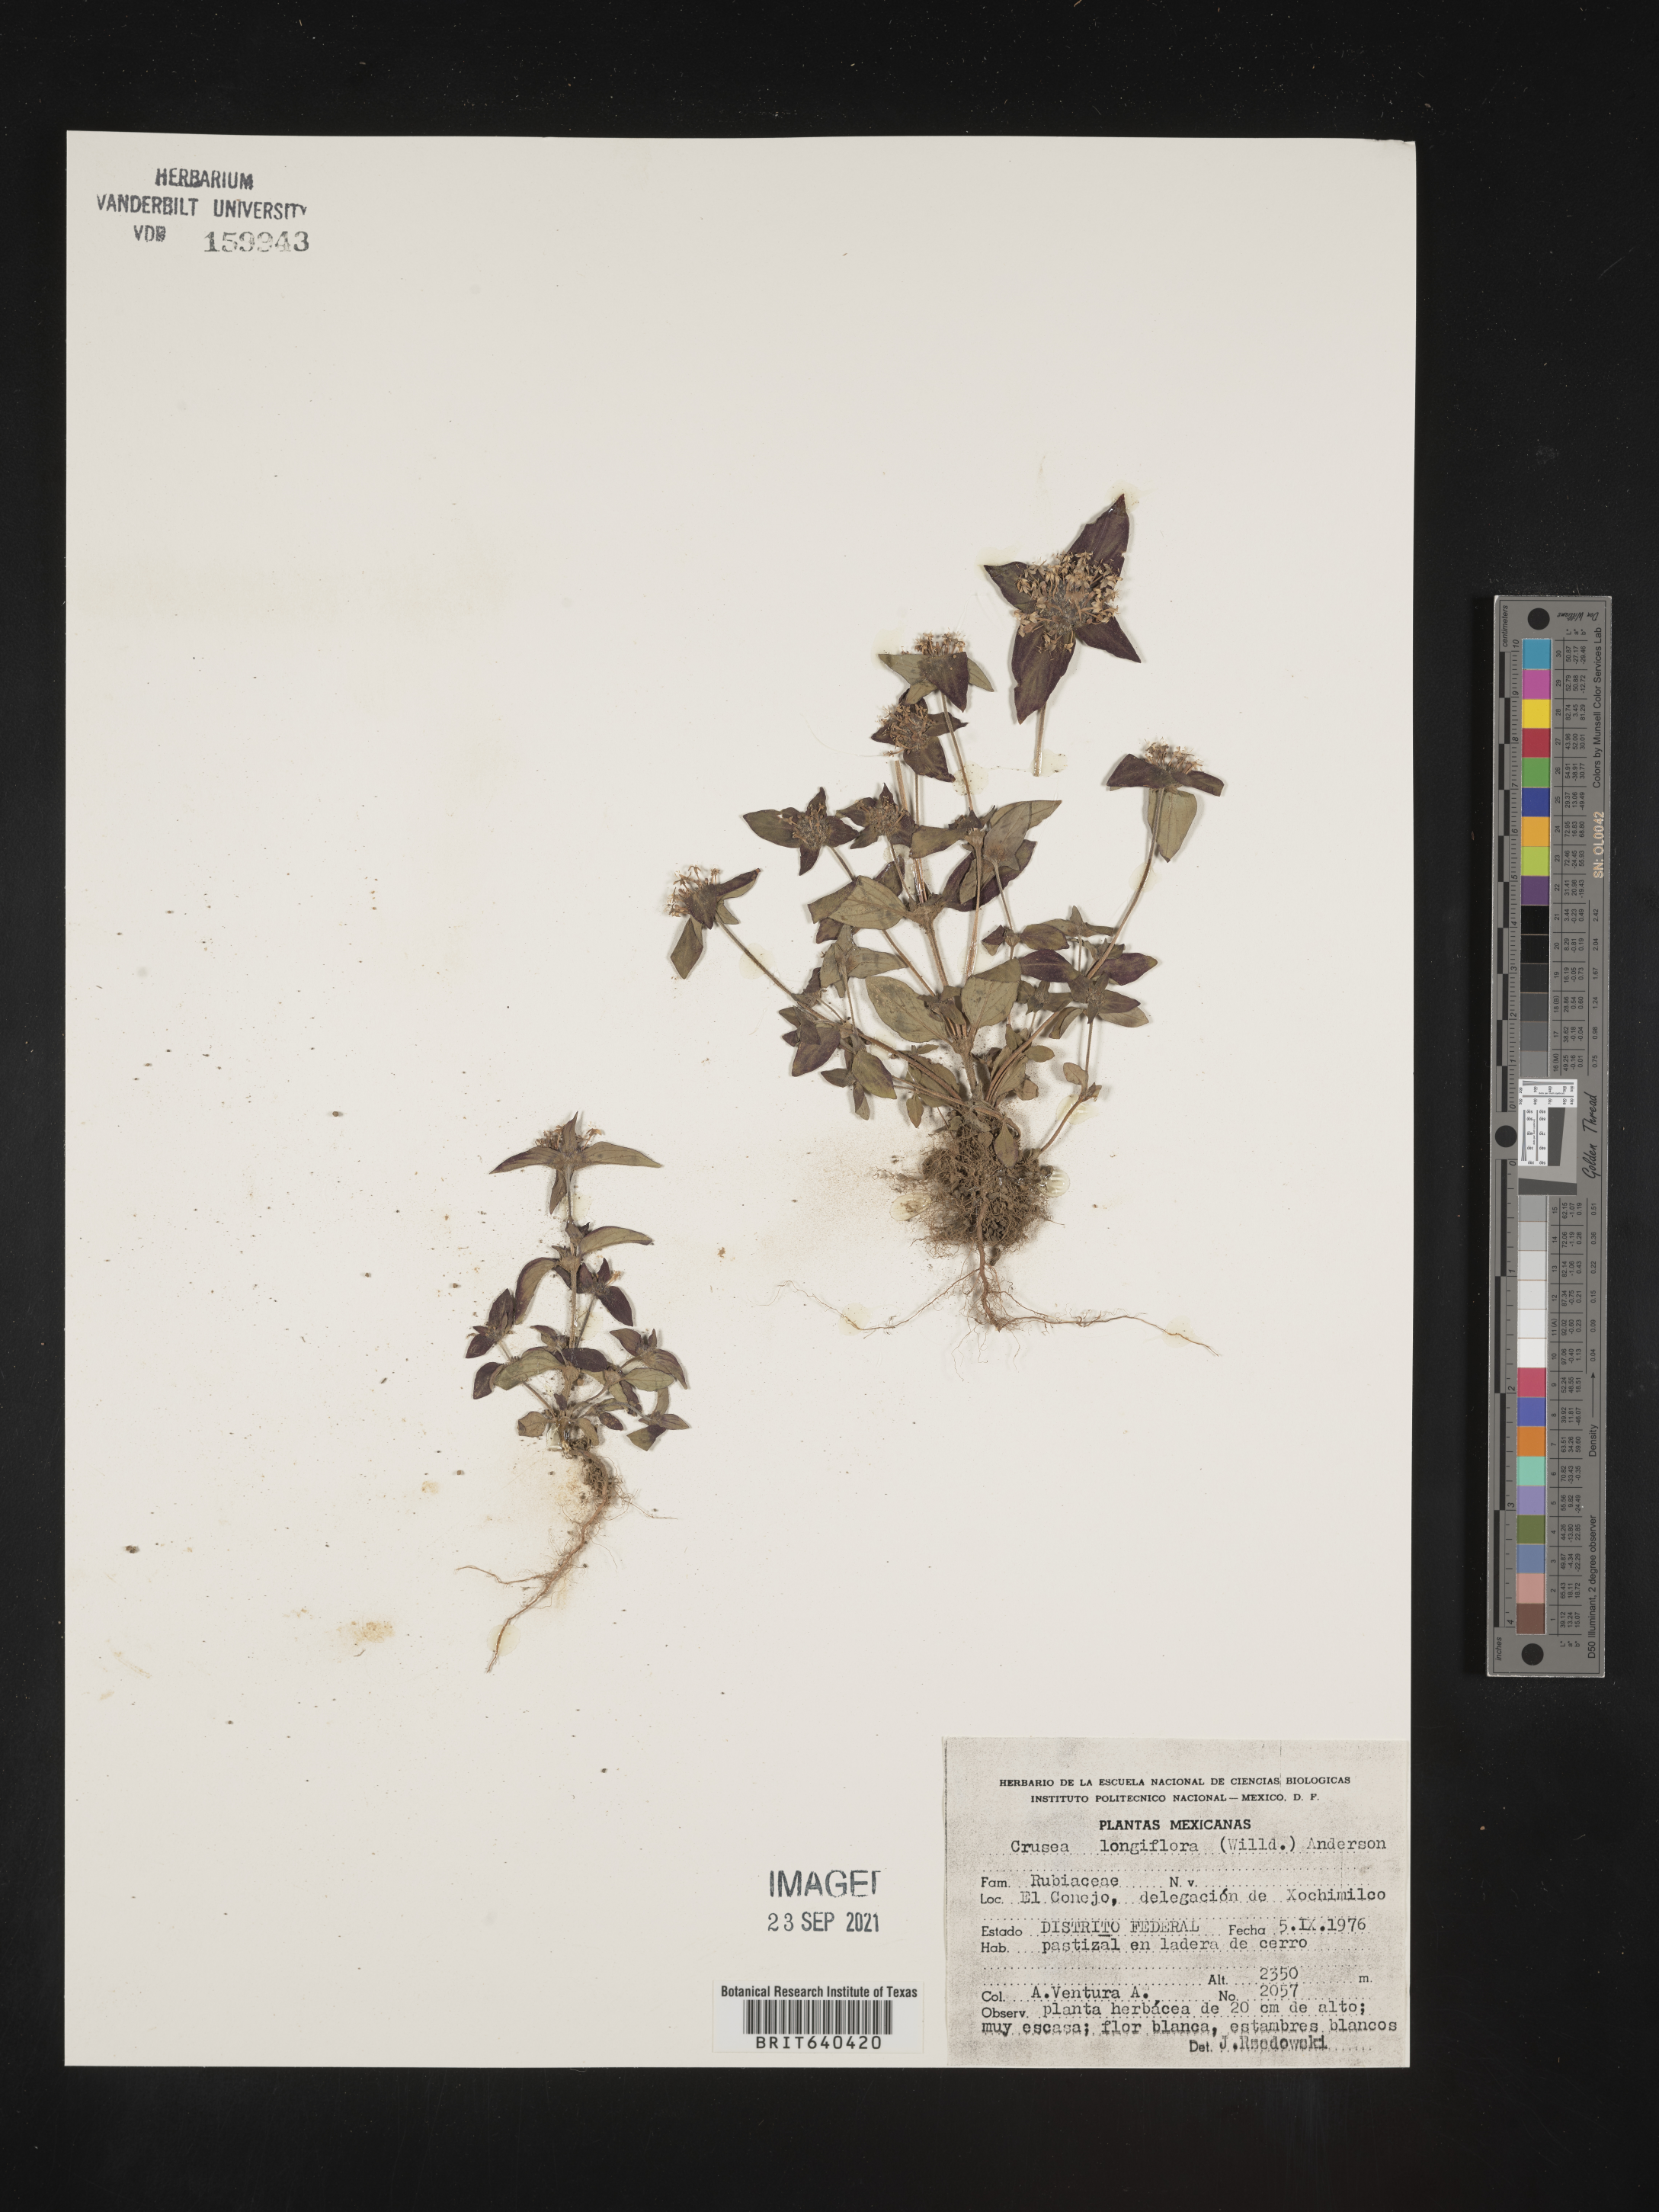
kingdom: Plantae
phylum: Tracheophyta
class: Magnoliopsida
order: Gentianales
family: Rubiaceae
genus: Crusea
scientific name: Crusea
